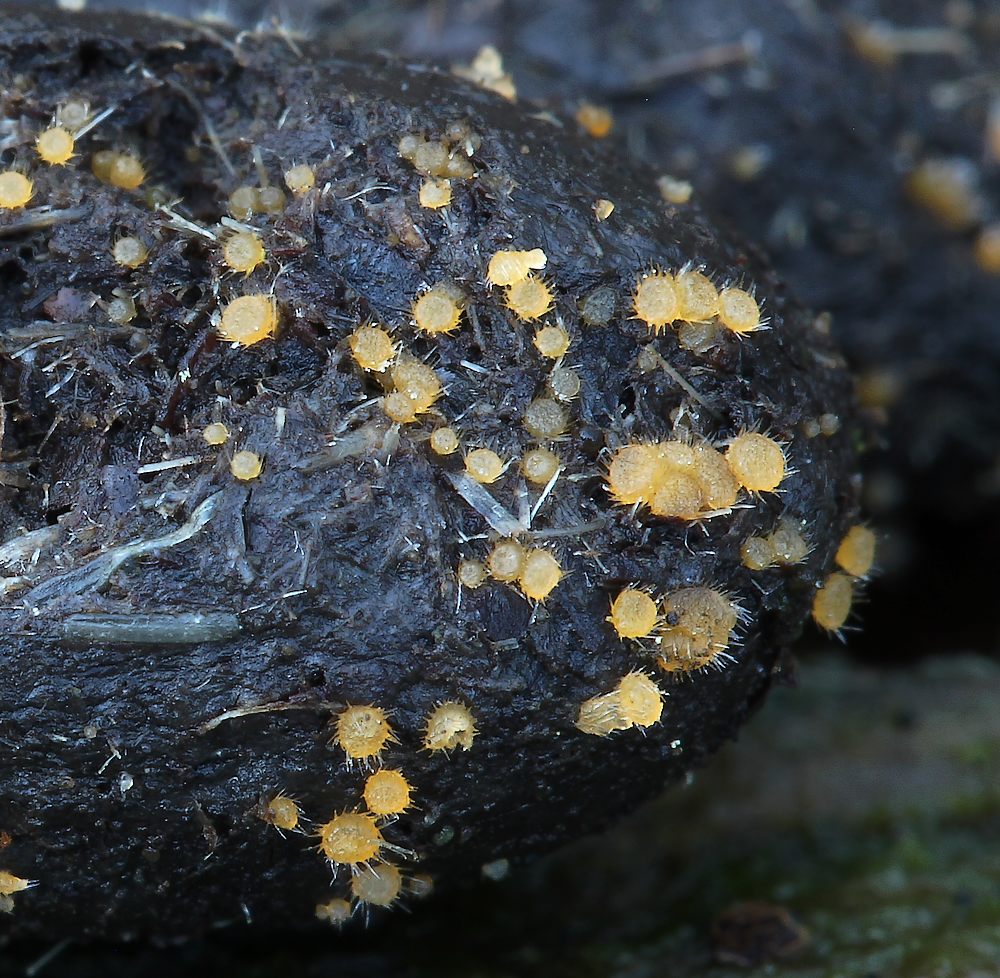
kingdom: Fungi
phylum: Ascomycota
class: Pezizomycetes
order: Pezizales
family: Ascodesmidaceae
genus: Lasiobolus
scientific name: Lasiobolus papillatus
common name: enradet øjebæger
